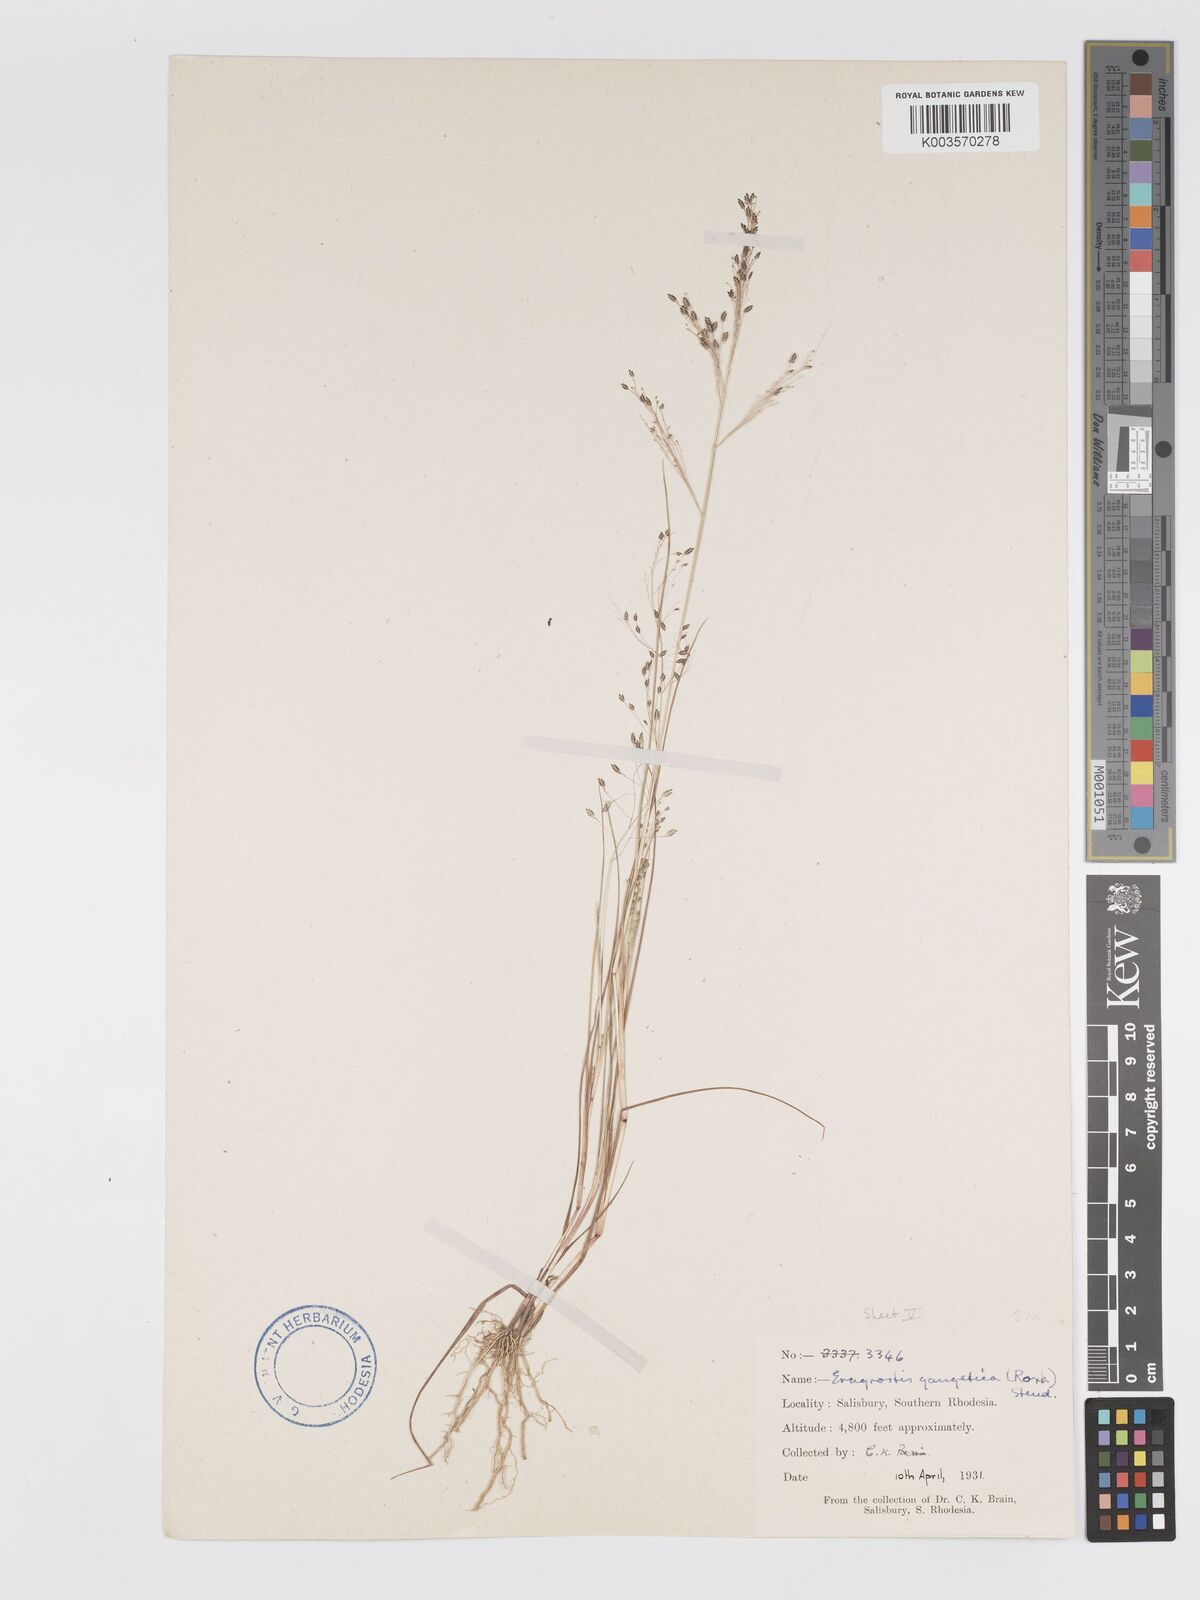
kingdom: Plantae
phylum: Tracheophyta
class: Liliopsida
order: Poales
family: Poaceae
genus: Eragrostis
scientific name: Eragrostis gangetica
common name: Slimflower lovegrass
